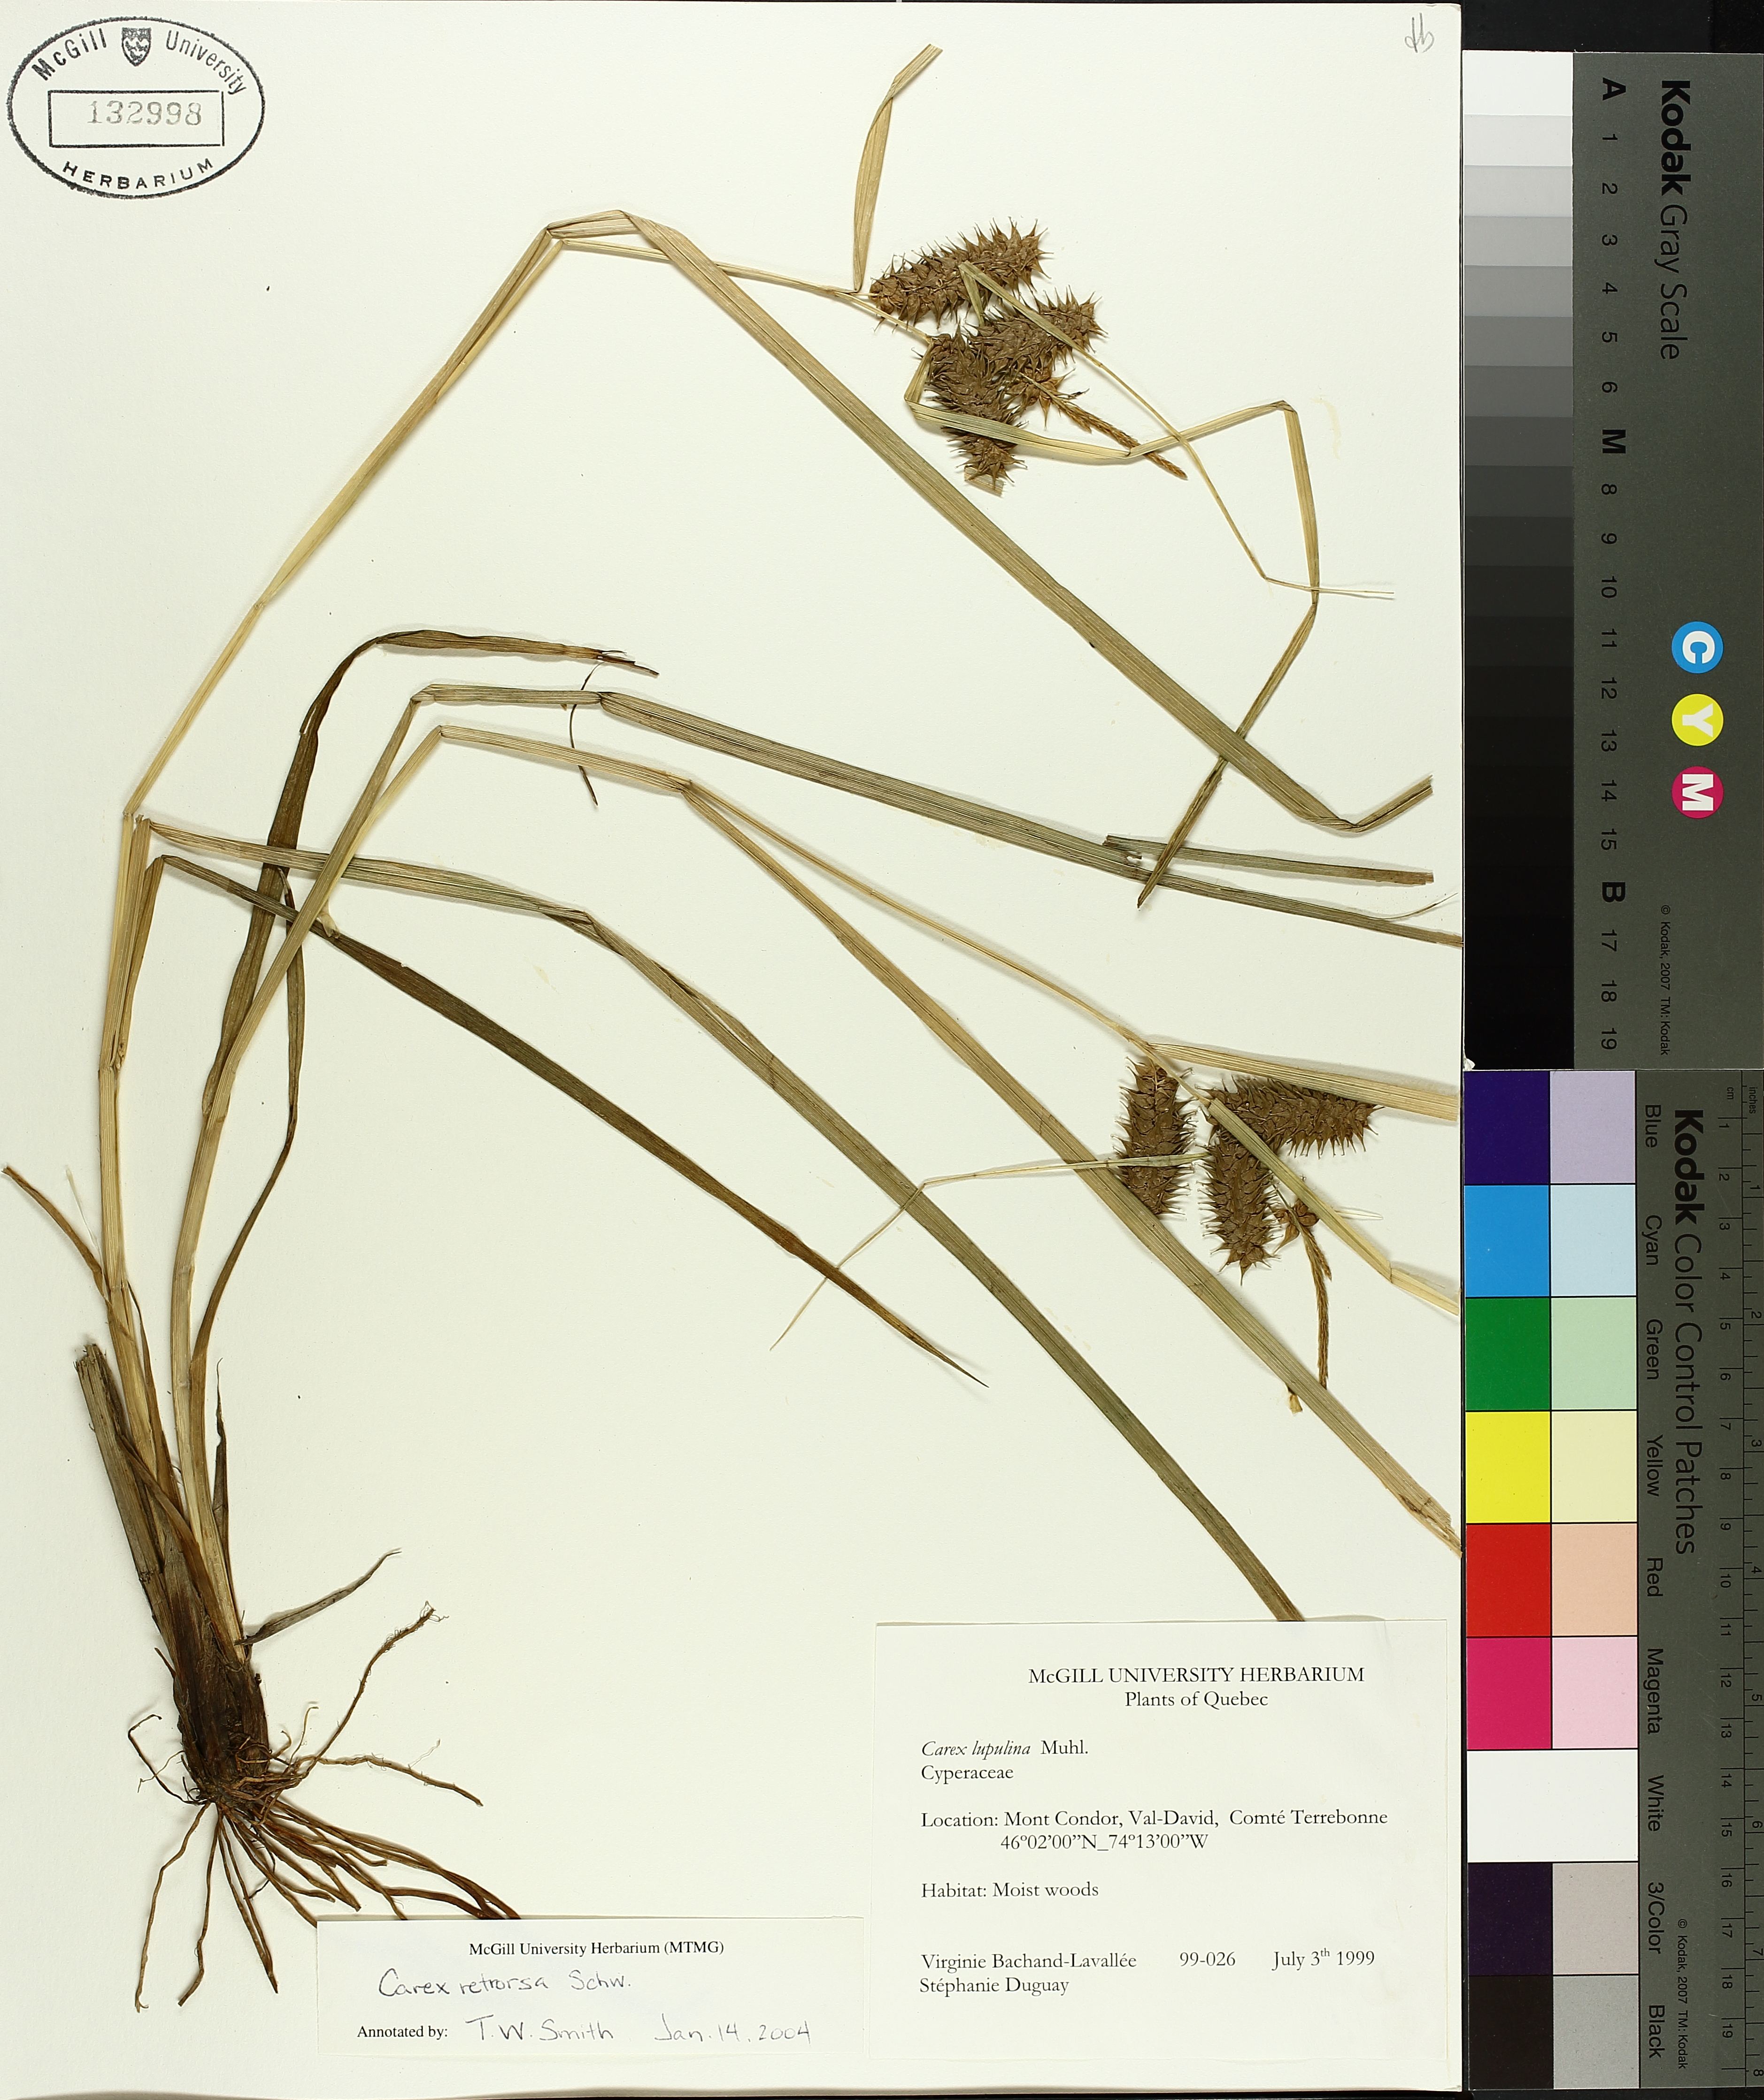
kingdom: Plantae
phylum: Tracheophyta
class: Liliopsida
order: Poales
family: Cyperaceae
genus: Carex
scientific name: Carex retrorsa
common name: Knot-sheath sedge
